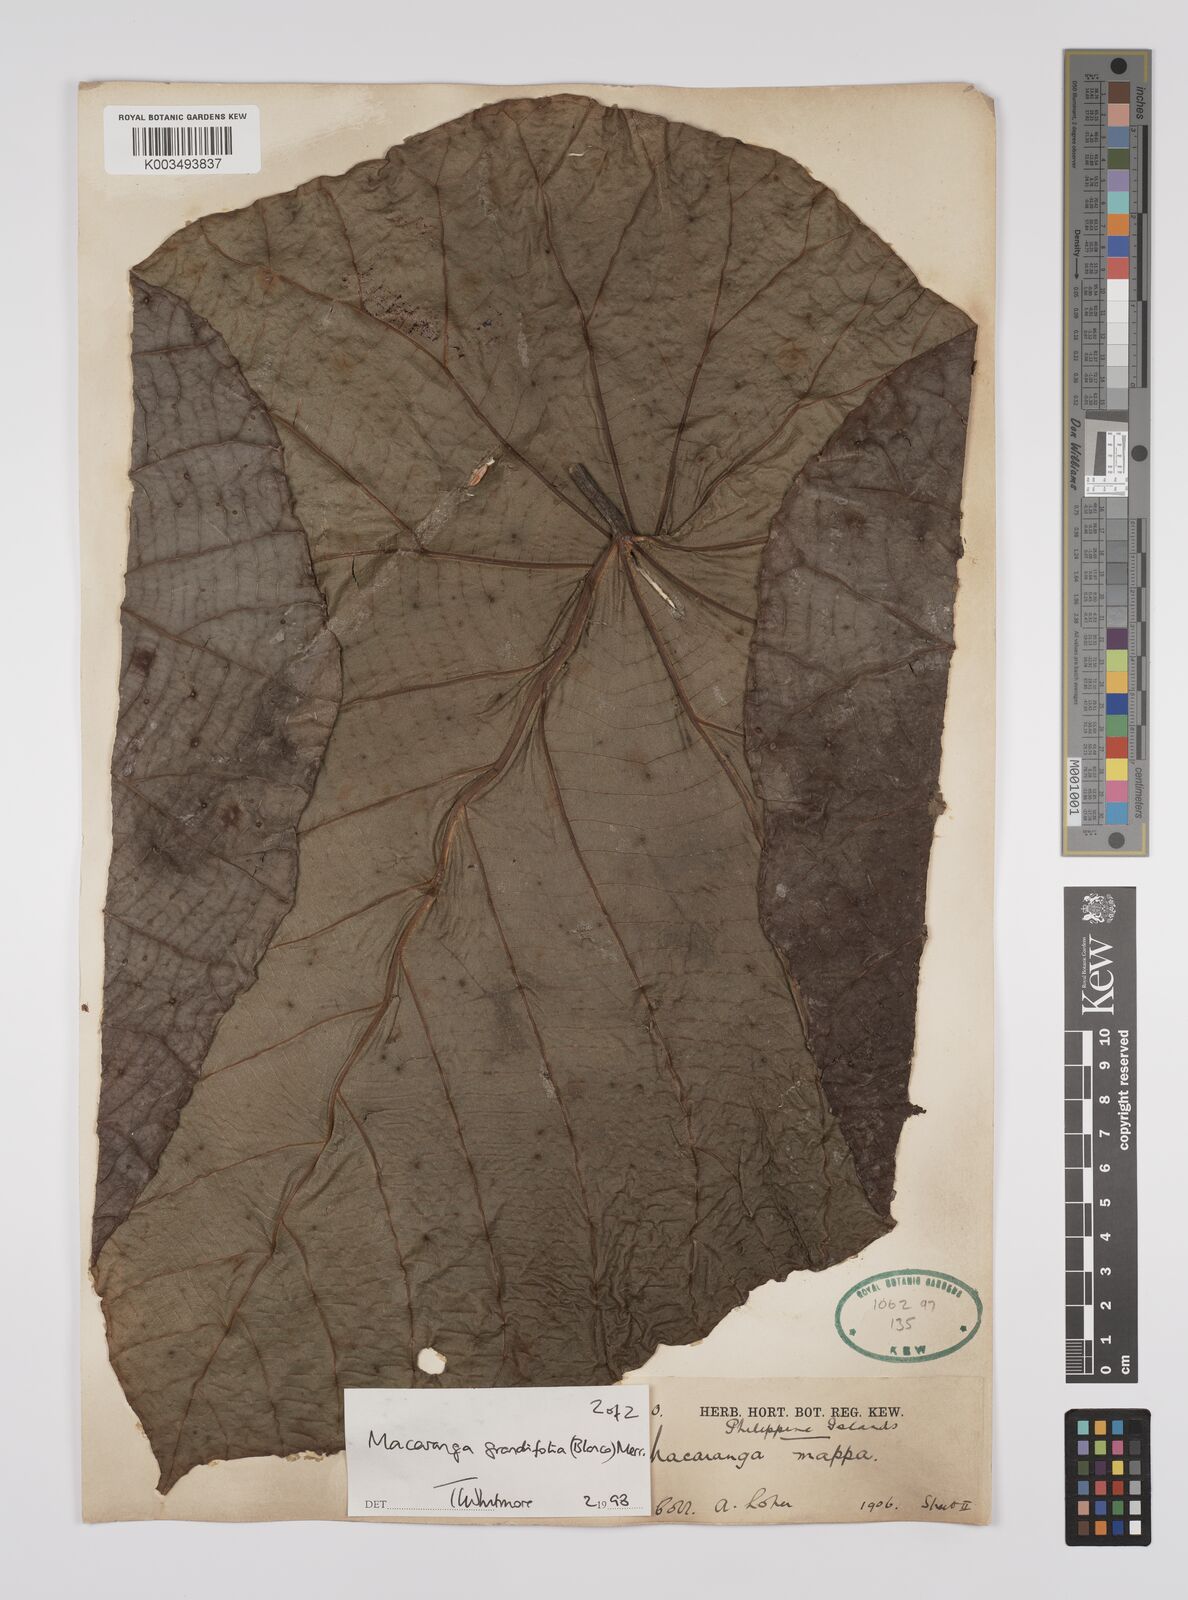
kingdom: Plantae
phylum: Tracheophyta
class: Magnoliopsida
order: Malpighiales
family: Euphorbiaceae
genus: Macaranga
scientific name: Macaranga grandifolia
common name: Coraltree
